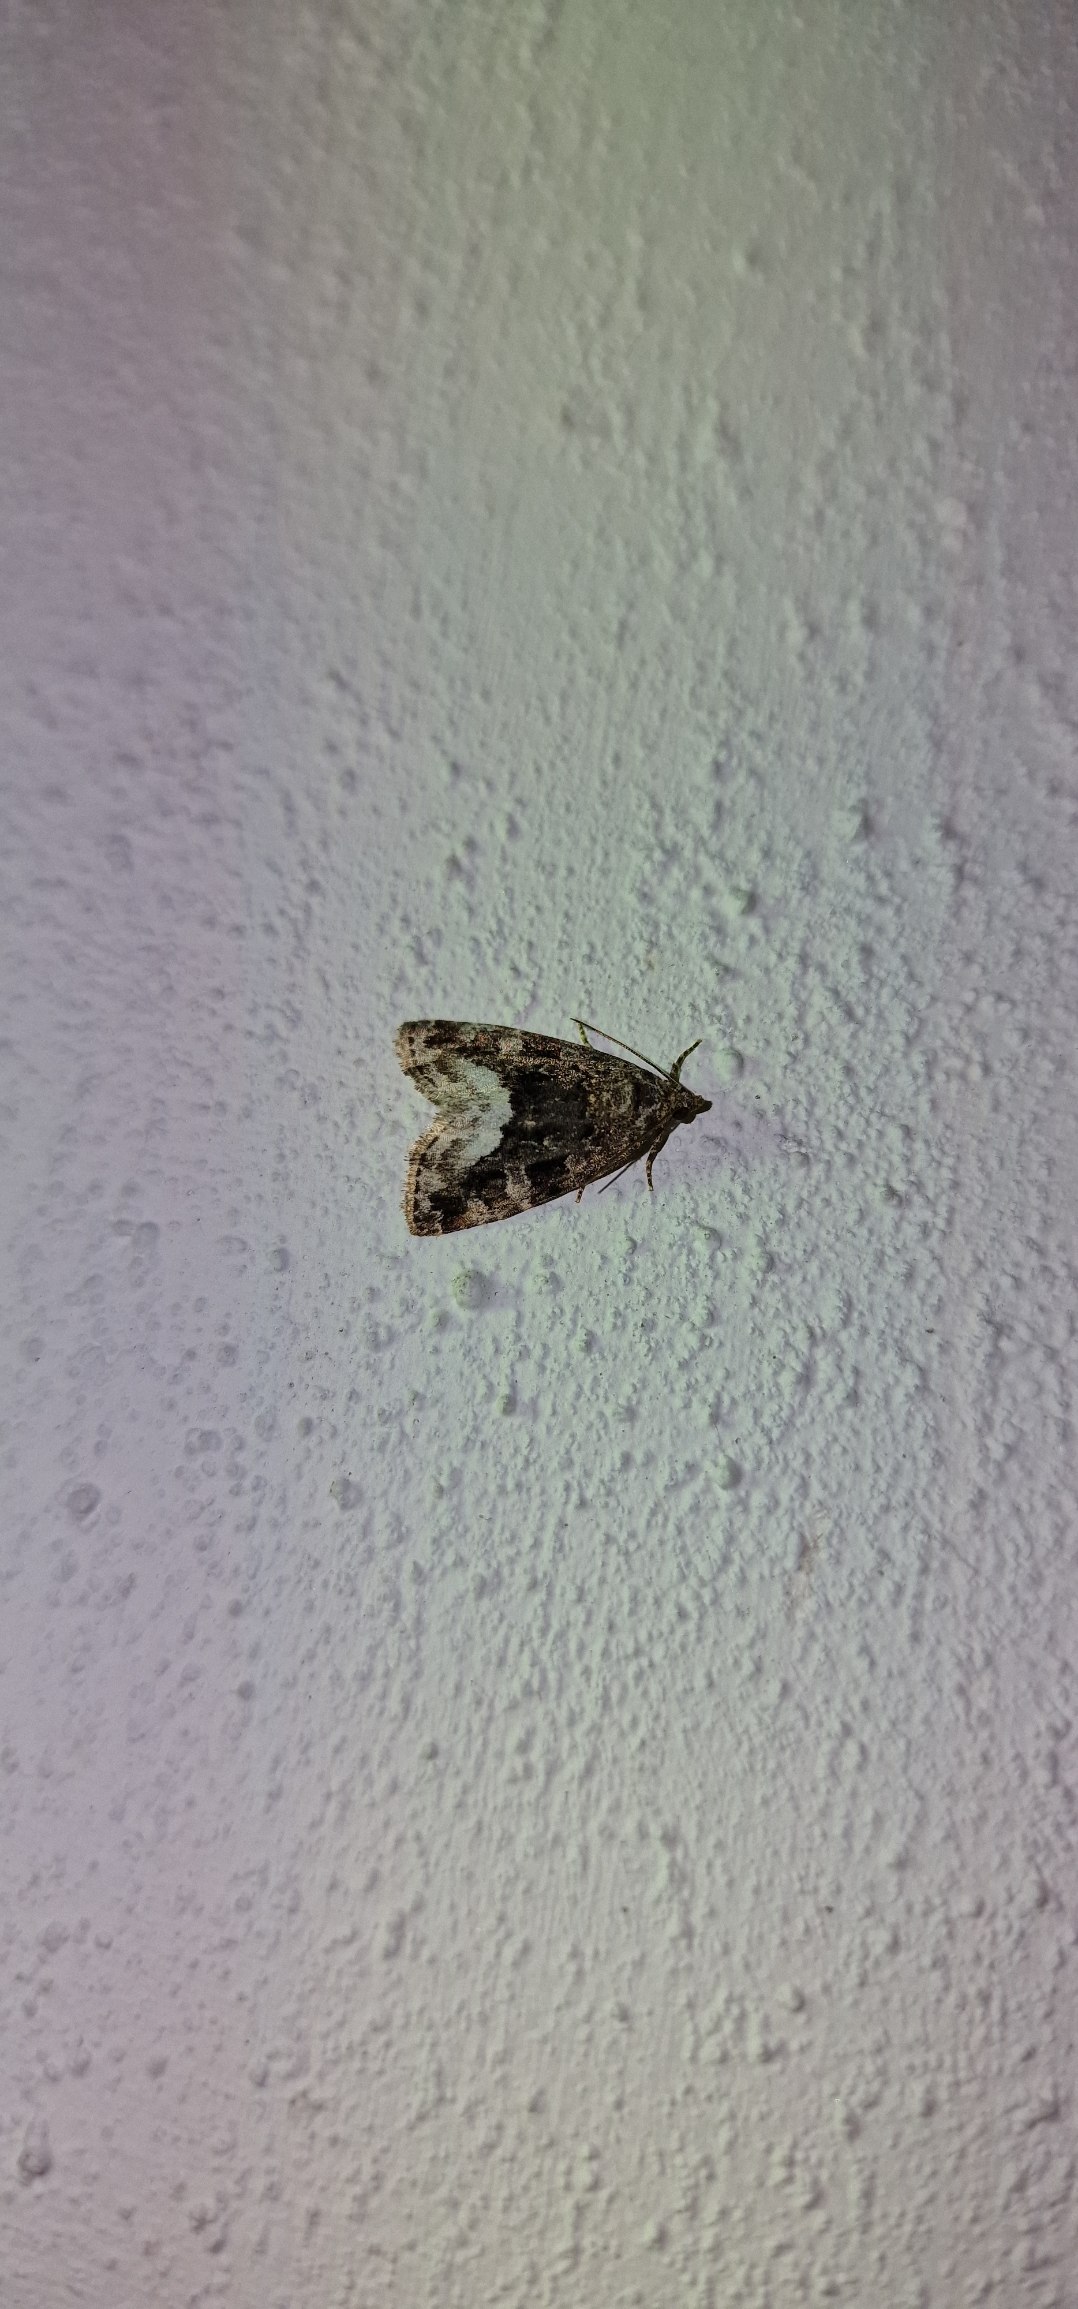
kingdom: Animalia
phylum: Arthropoda
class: Insecta
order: Lepidoptera
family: Noctuidae
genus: Deltote
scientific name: Deltote pygarga
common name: Hvidhjørnet dagugle
